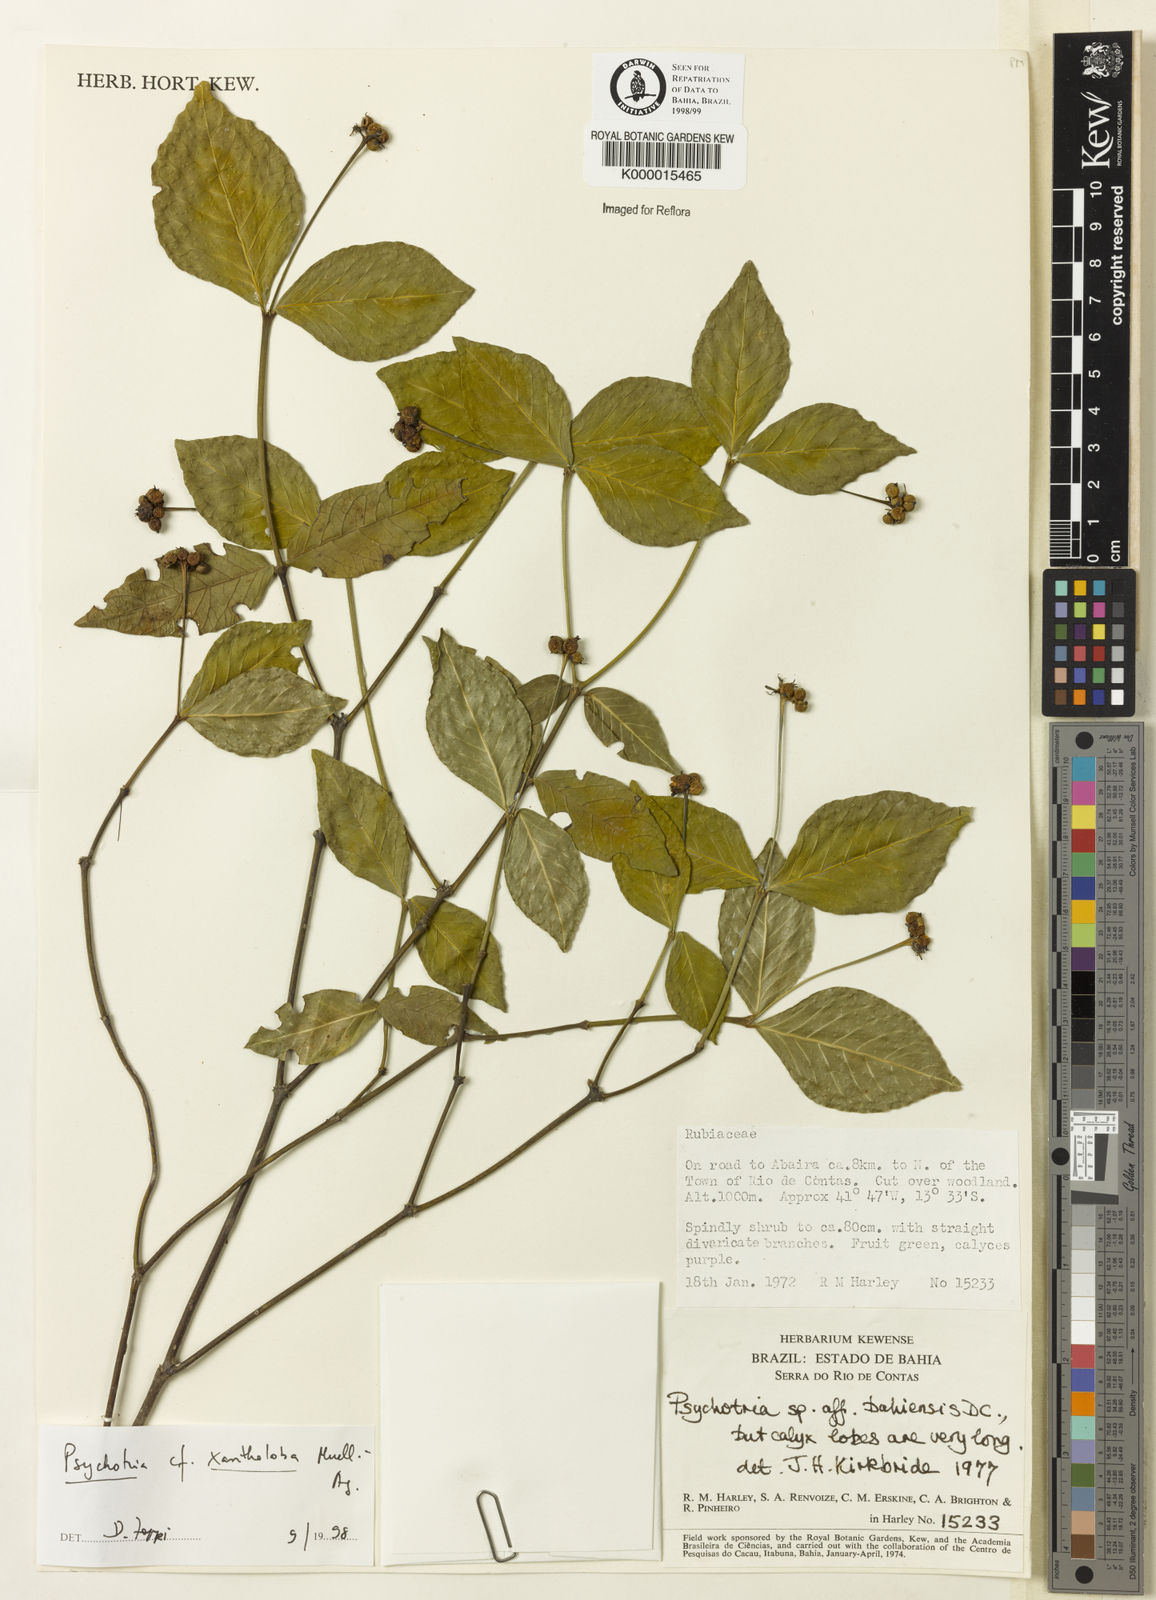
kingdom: Plantae
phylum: Tracheophyta
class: Magnoliopsida
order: Gentianales
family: Rubiaceae
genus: Psychotria
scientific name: Psychotria xantholoba
